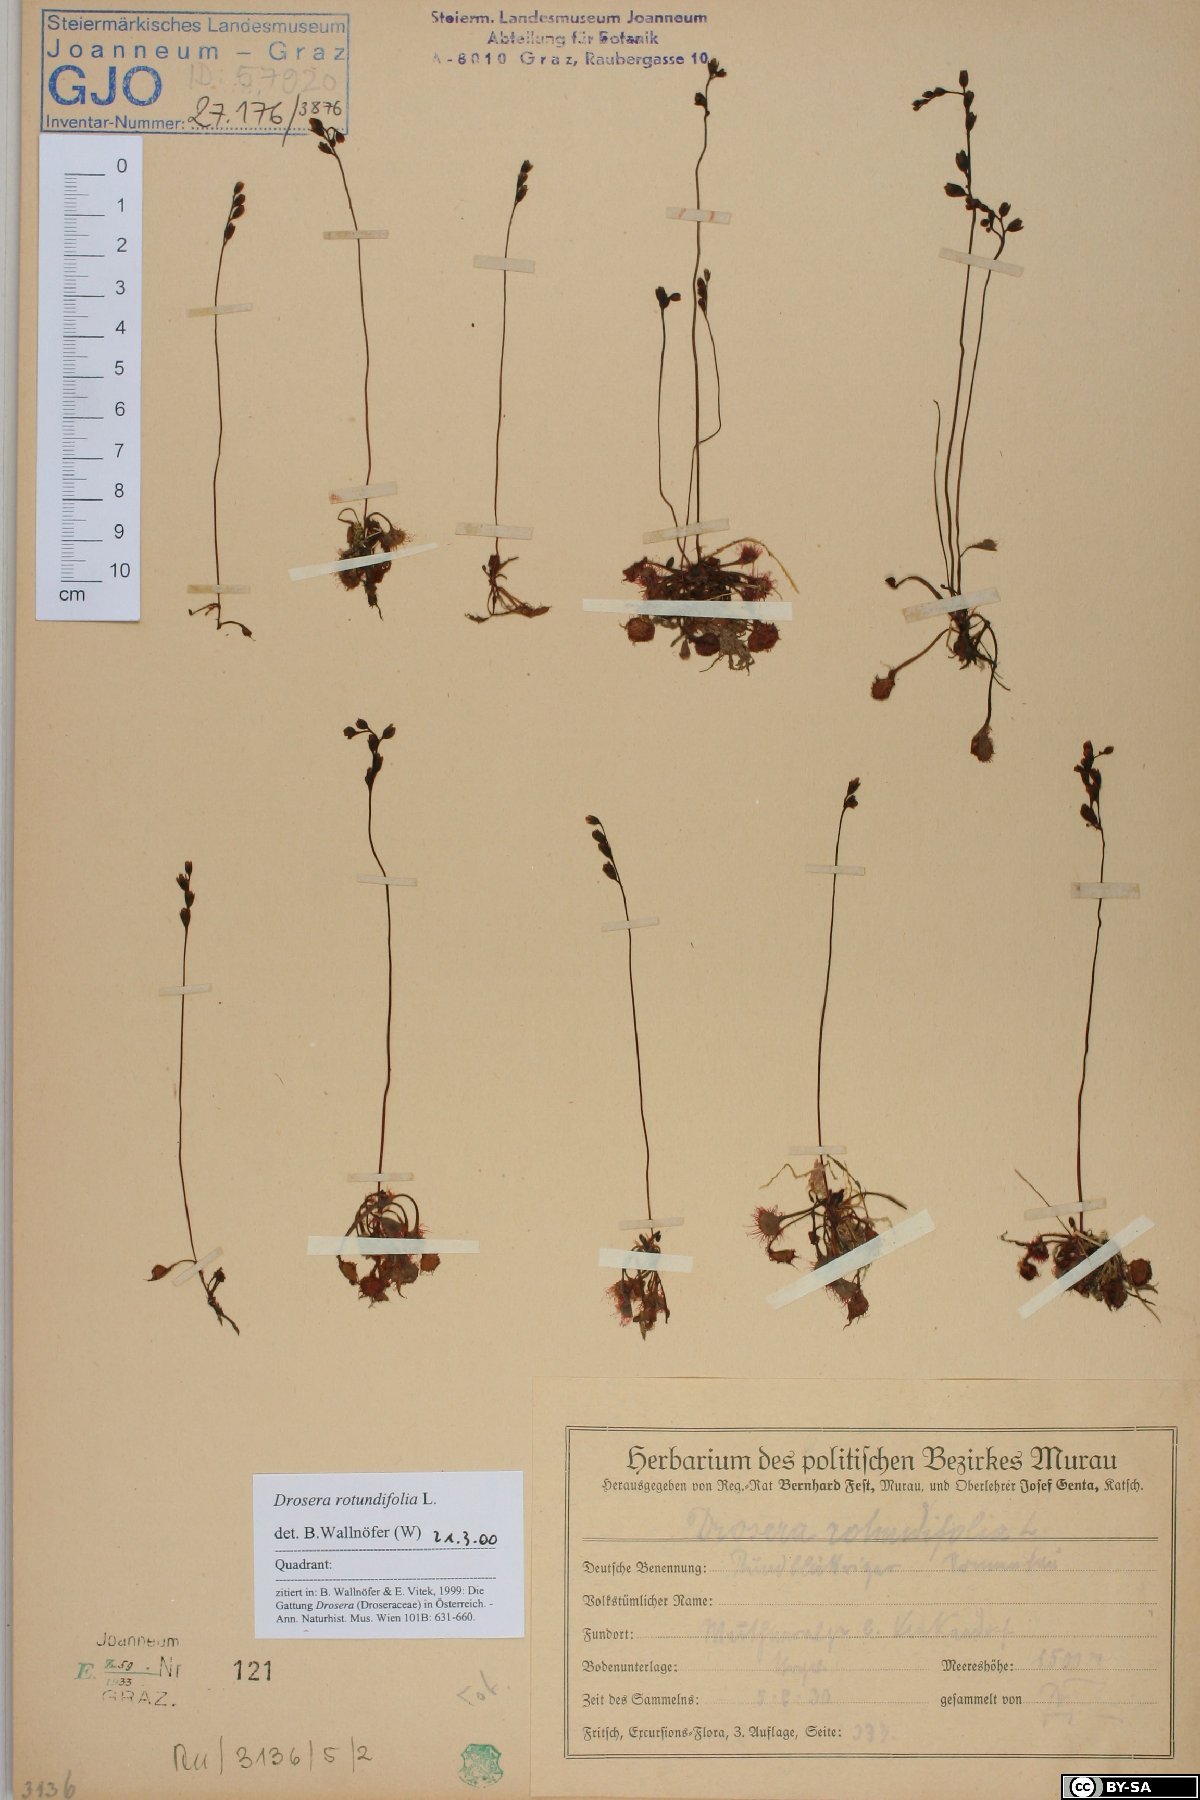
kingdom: Plantae
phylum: Tracheophyta
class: Magnoliopsida
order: Caryophyllales
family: Droseraceae
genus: Drosera
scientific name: Drosera rotundifolia
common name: Round-leaved sundew
